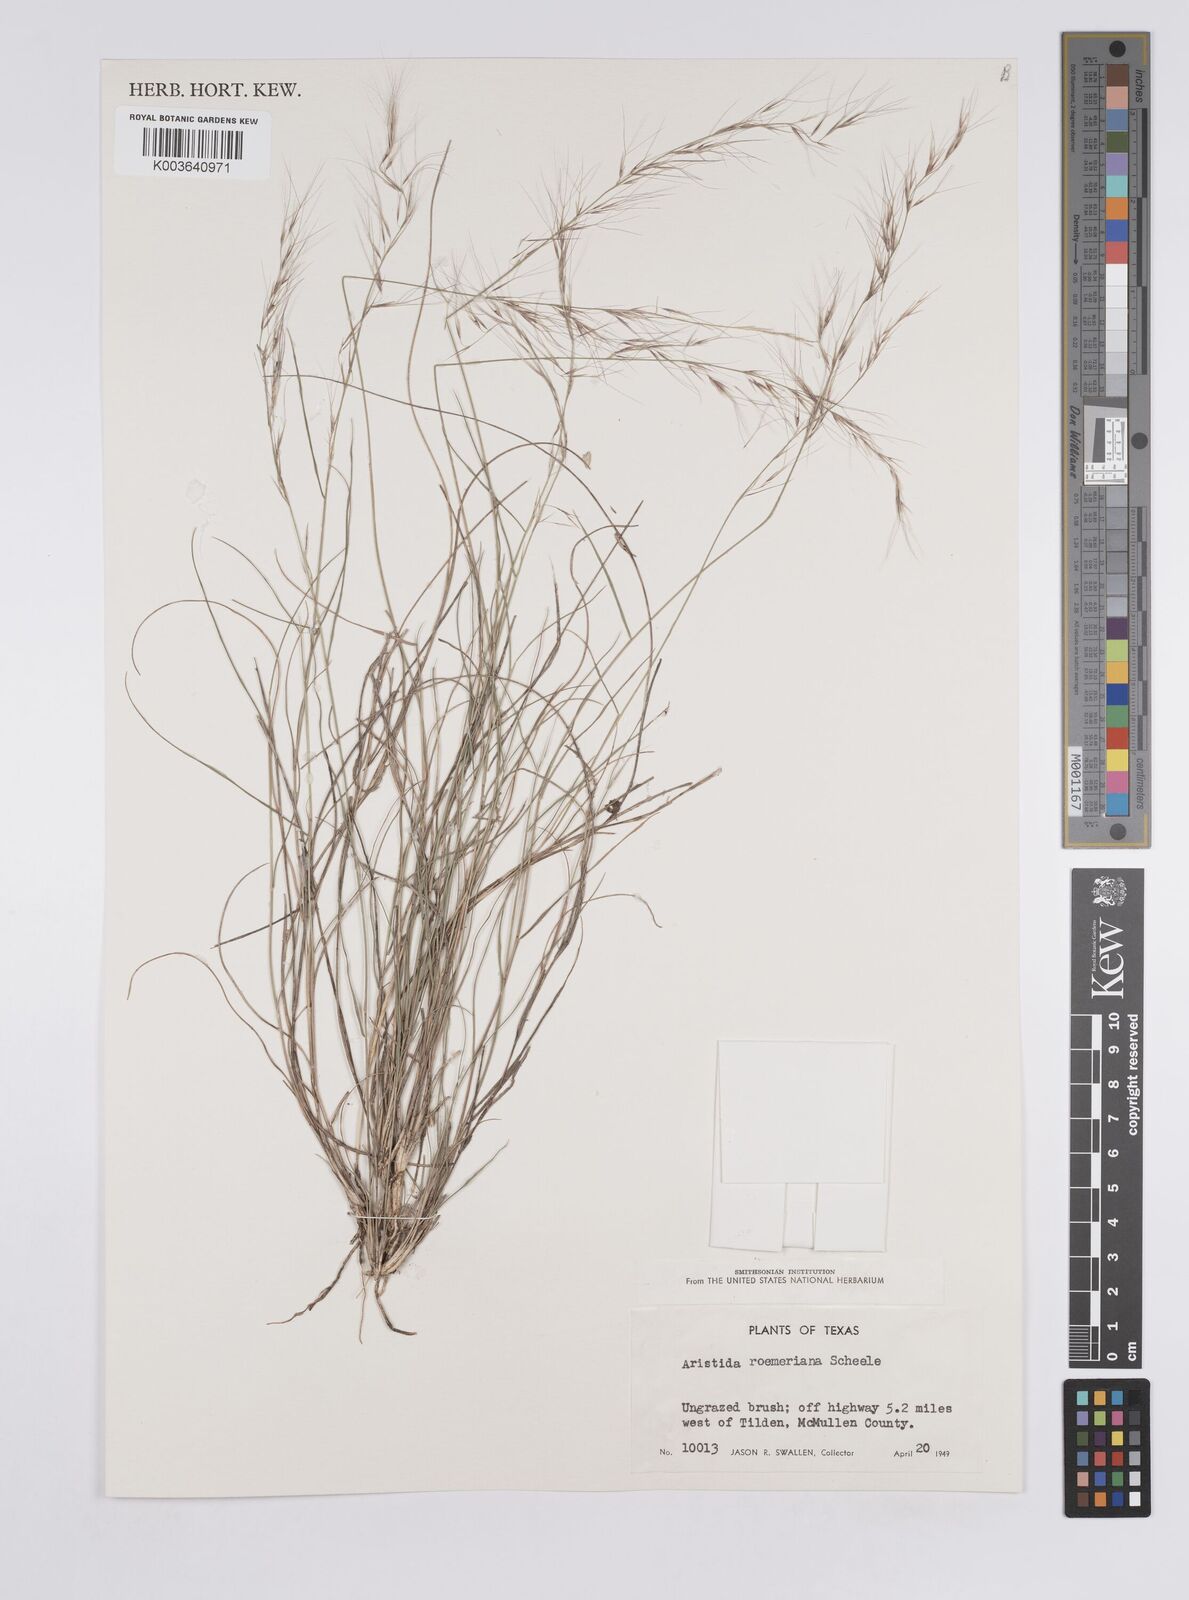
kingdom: Plantae
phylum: Tracheophyta
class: Liliopsida
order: Poales
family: Poaceae
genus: Aristida
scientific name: Aristida purpurea
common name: Purple threeawn
